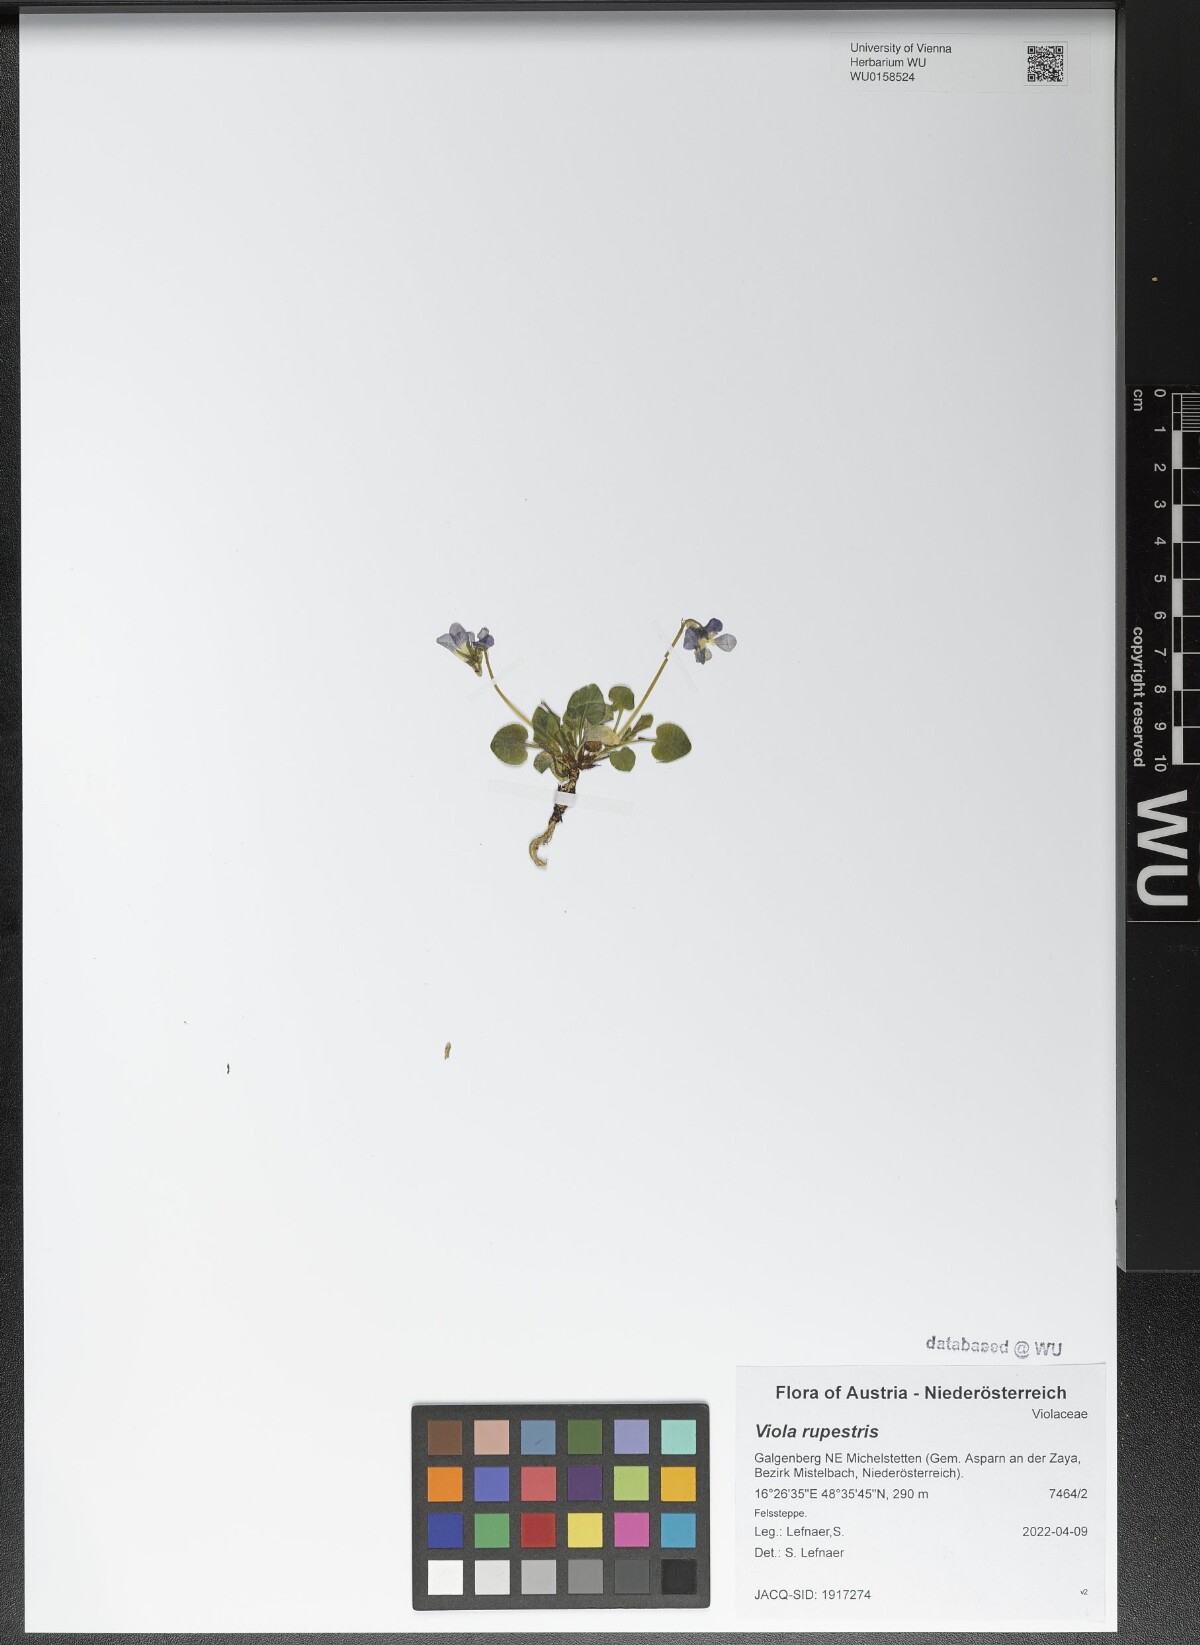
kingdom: Plantae
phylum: Tracheophyta
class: Magnoliopsida
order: Malpighiales
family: Violaceae
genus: Viola
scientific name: Viola rupestris
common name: Teesdale violet
